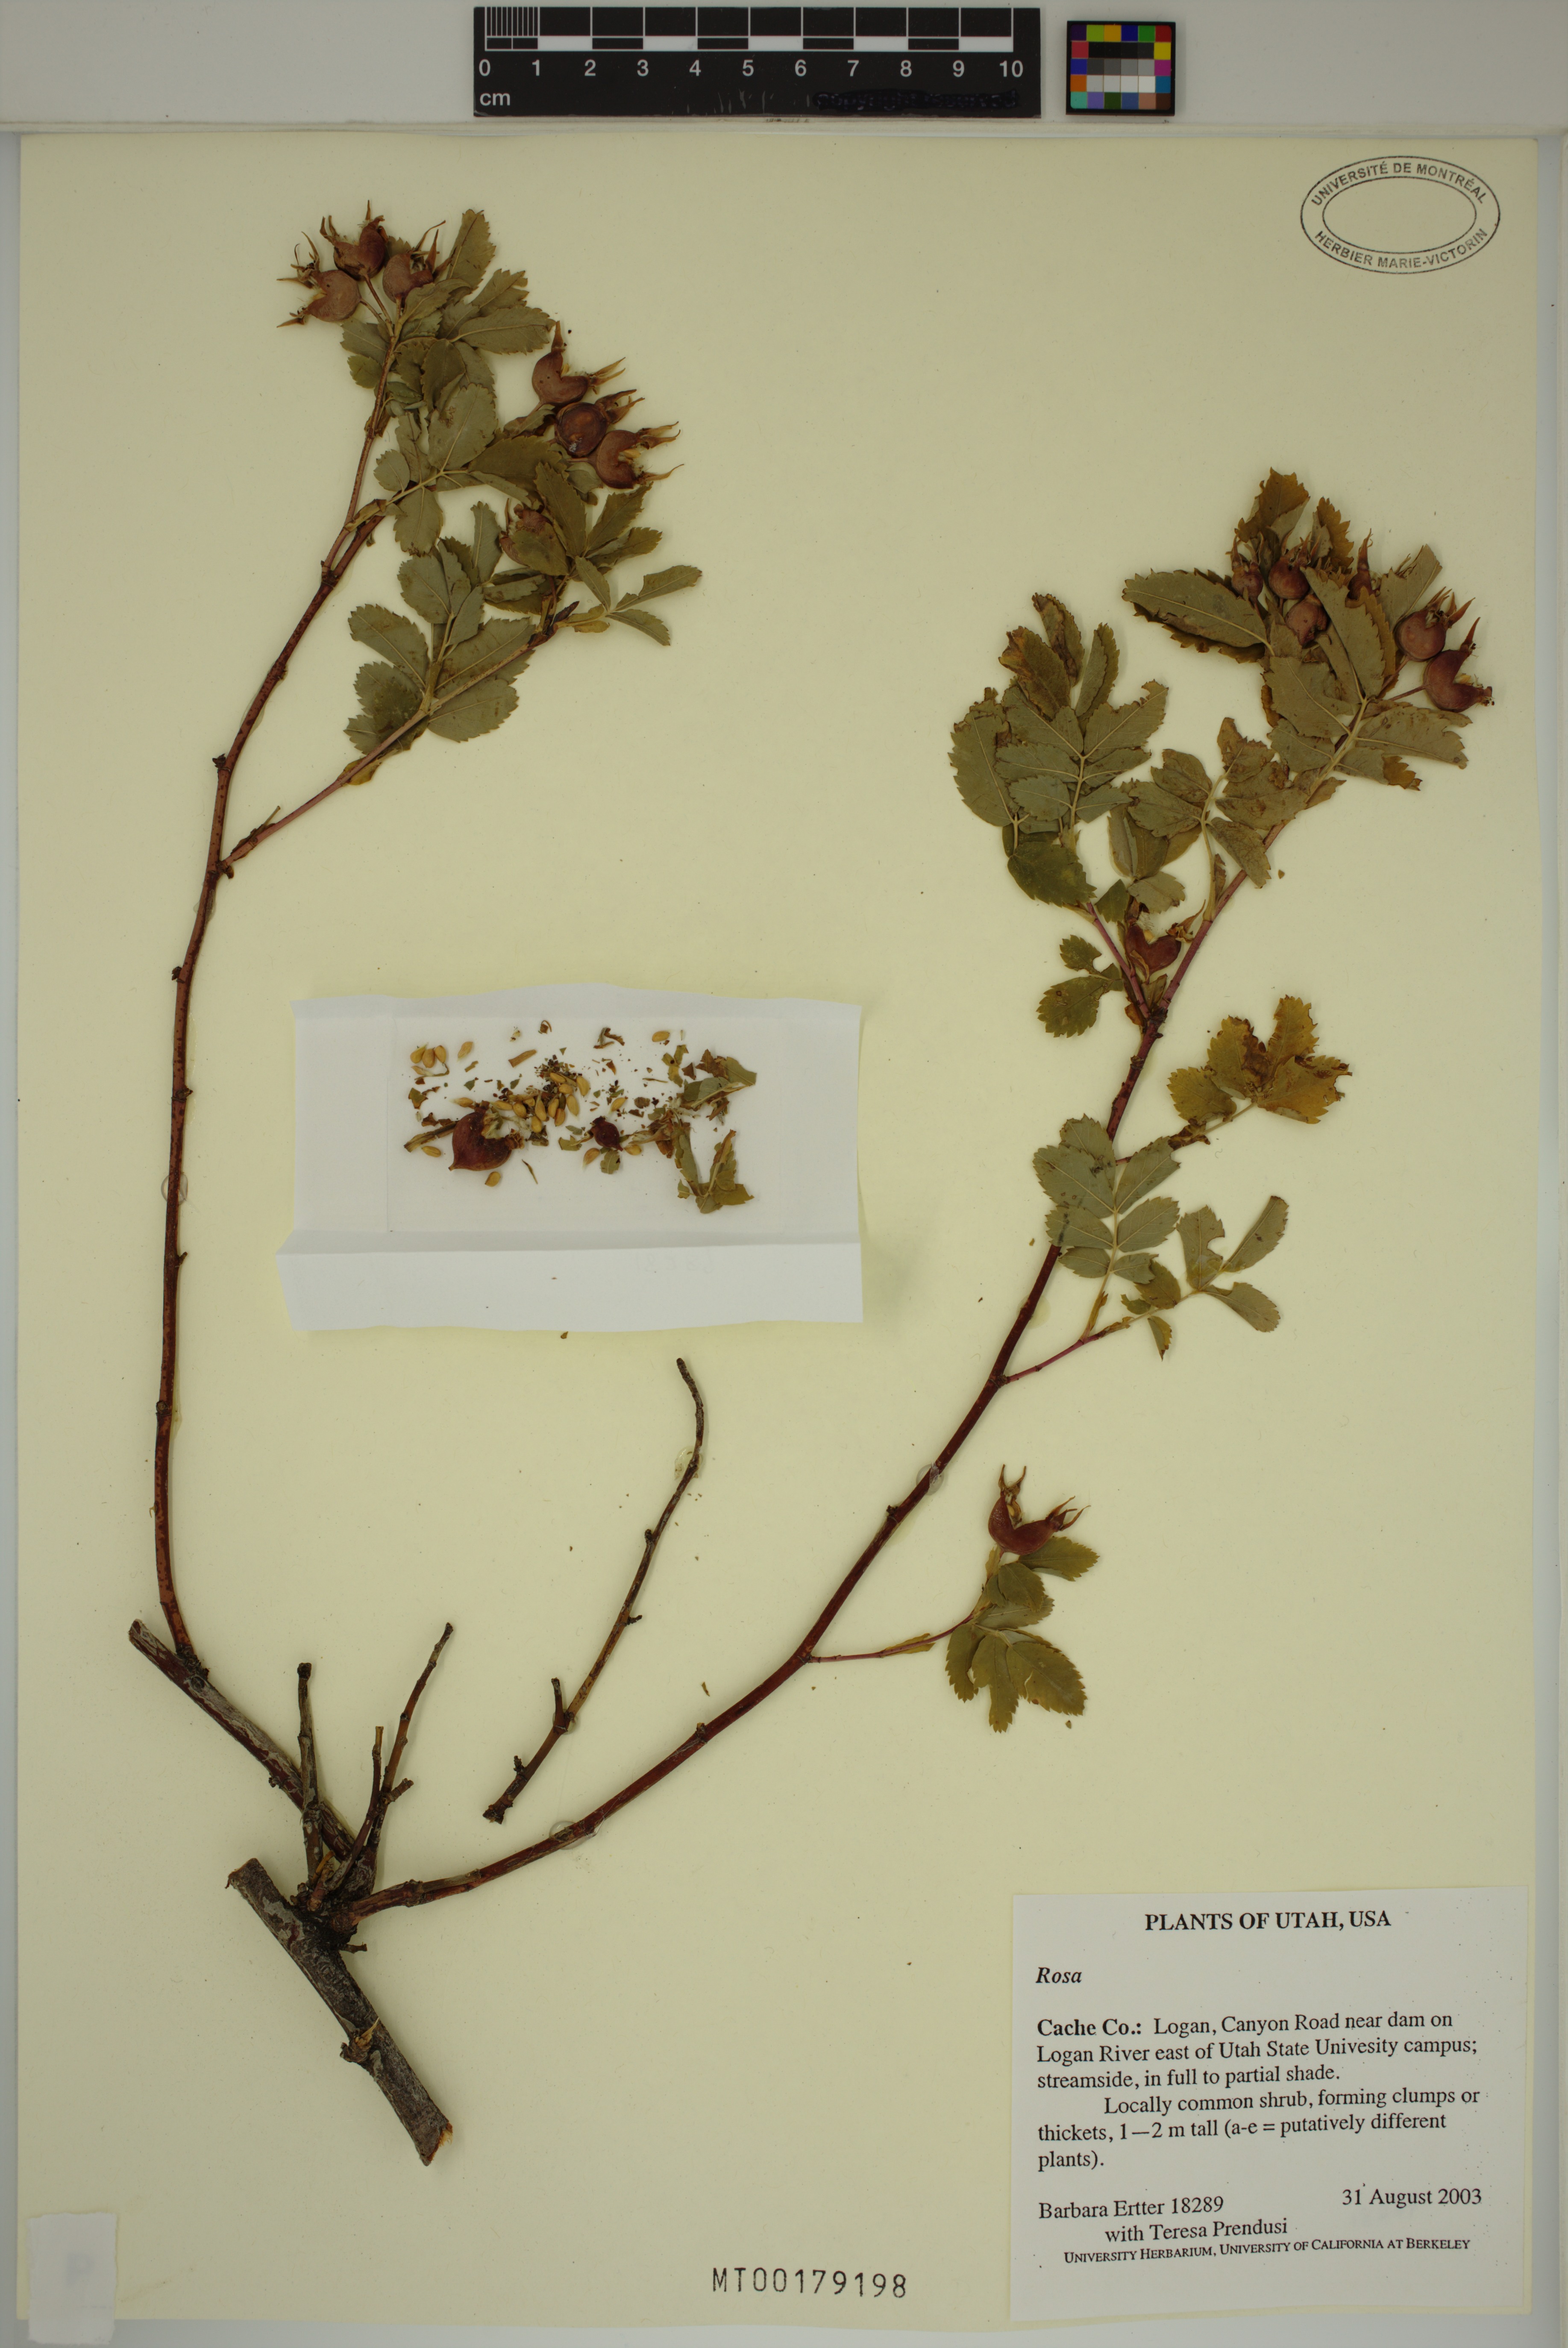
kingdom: Plantae
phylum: Tracheophyta
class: Magnoliopsida
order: Rosales
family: Rosaceae
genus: Rosa
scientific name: Rosa
